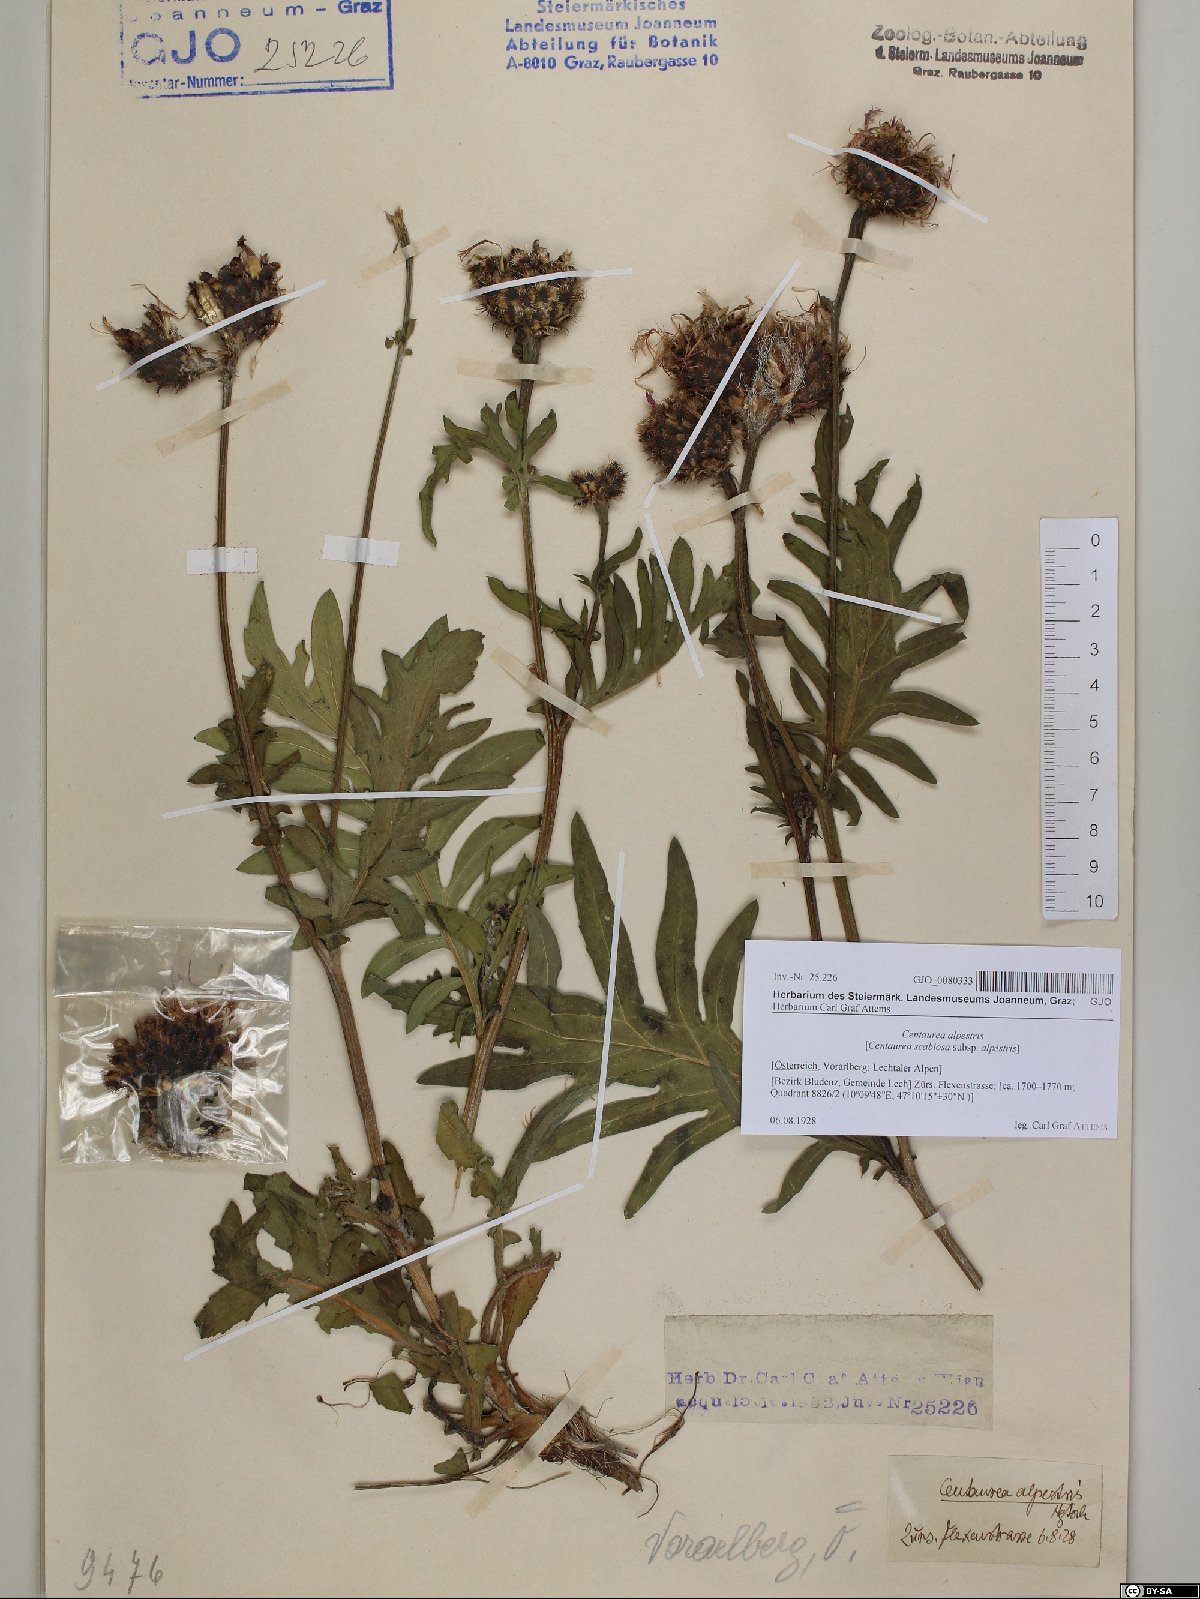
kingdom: Plantae
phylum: Tracheophyta
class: Magnoliopsida
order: Asterales
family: Asteraceae
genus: Centaurea
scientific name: Centaurea scabiosa
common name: Greater knapweed
